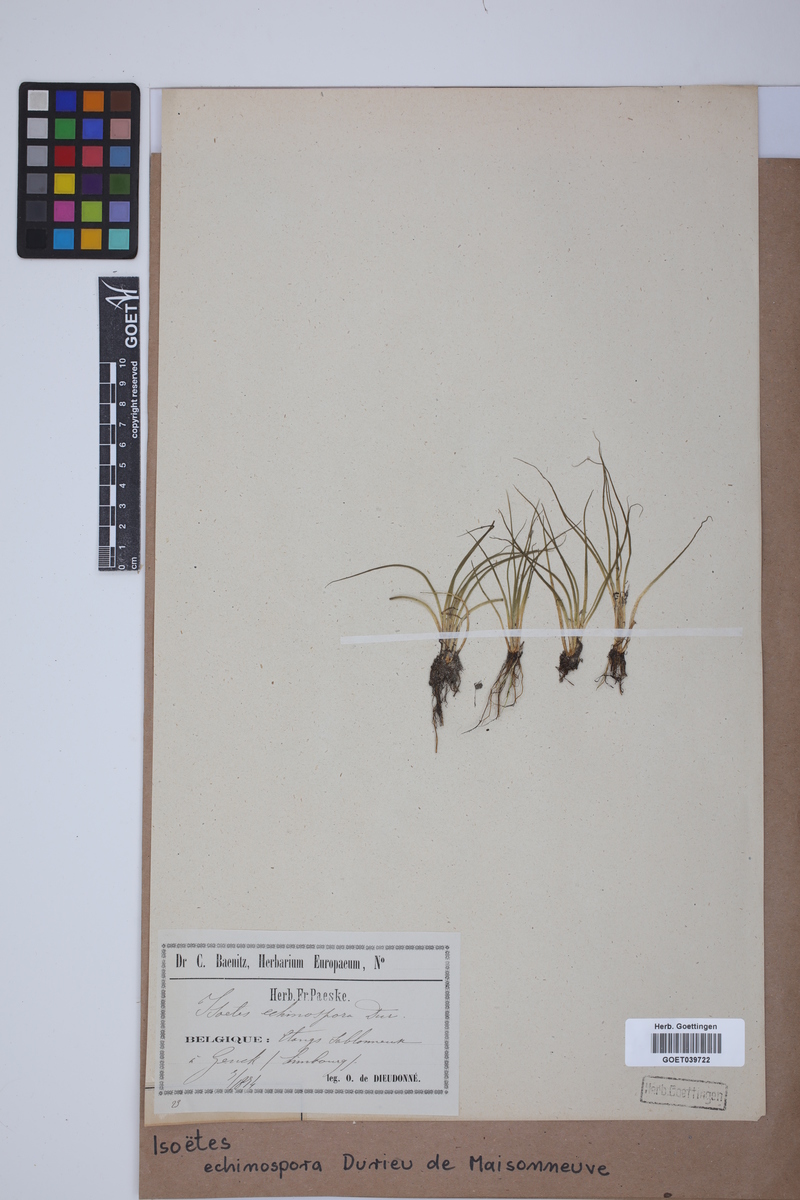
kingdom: Plantae
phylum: Tracheophyta
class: Lycopodiopsida
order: Isoetales
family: Isoetaceae
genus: Isoetes
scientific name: Isoetes echinospora
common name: Spring quillwort
